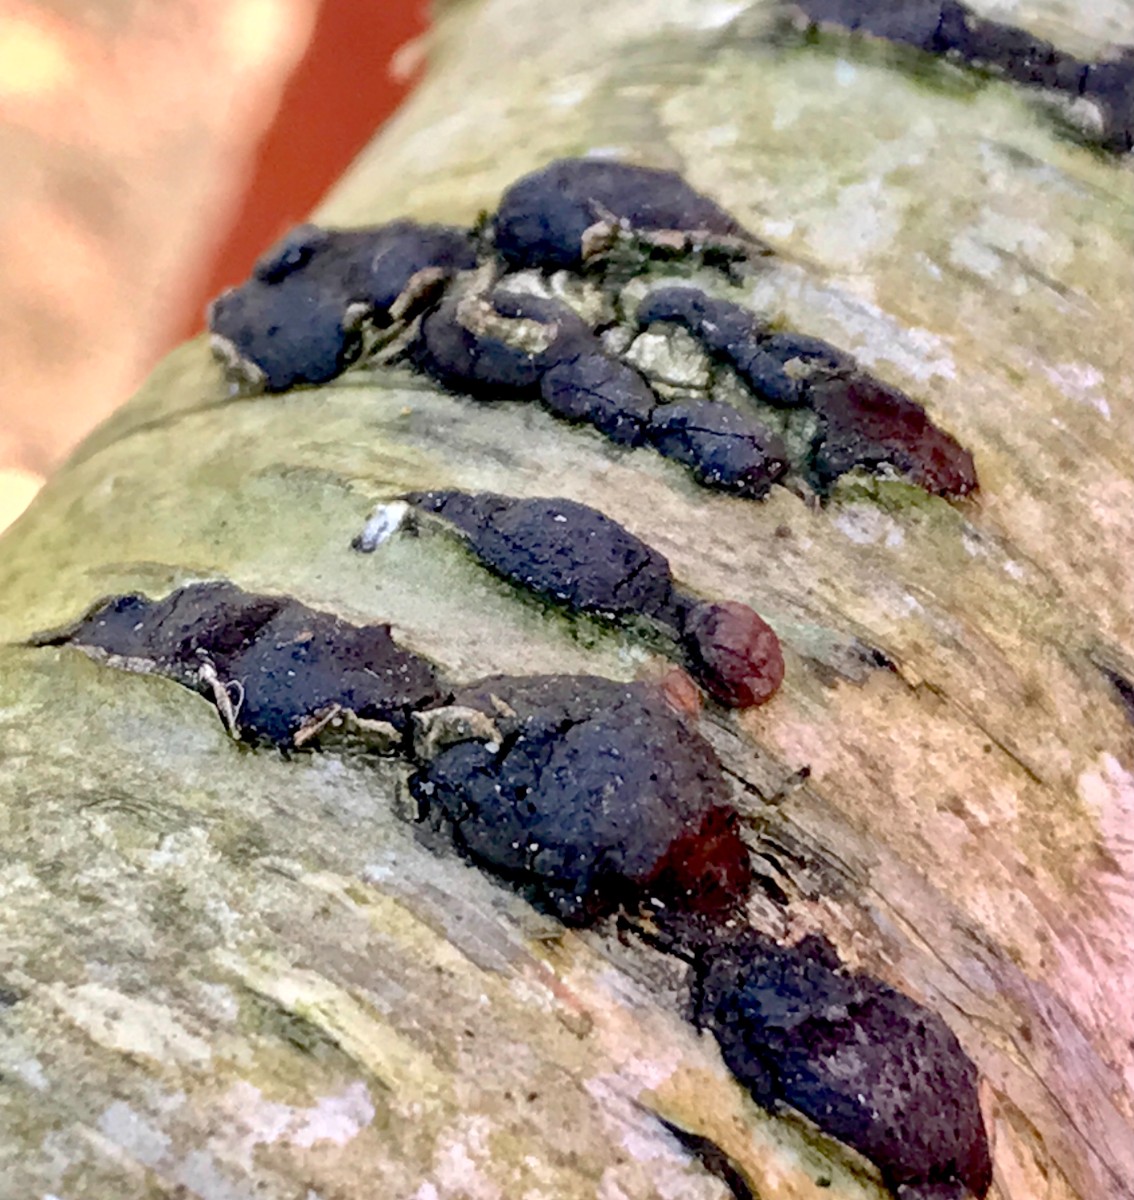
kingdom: Fungi
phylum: Ascomycota
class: Sordariomycetes
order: Xylariales
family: Hypoxylaceae
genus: Jackrogersella
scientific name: Jackrogersella multiformis
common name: foranderlig kulbær
